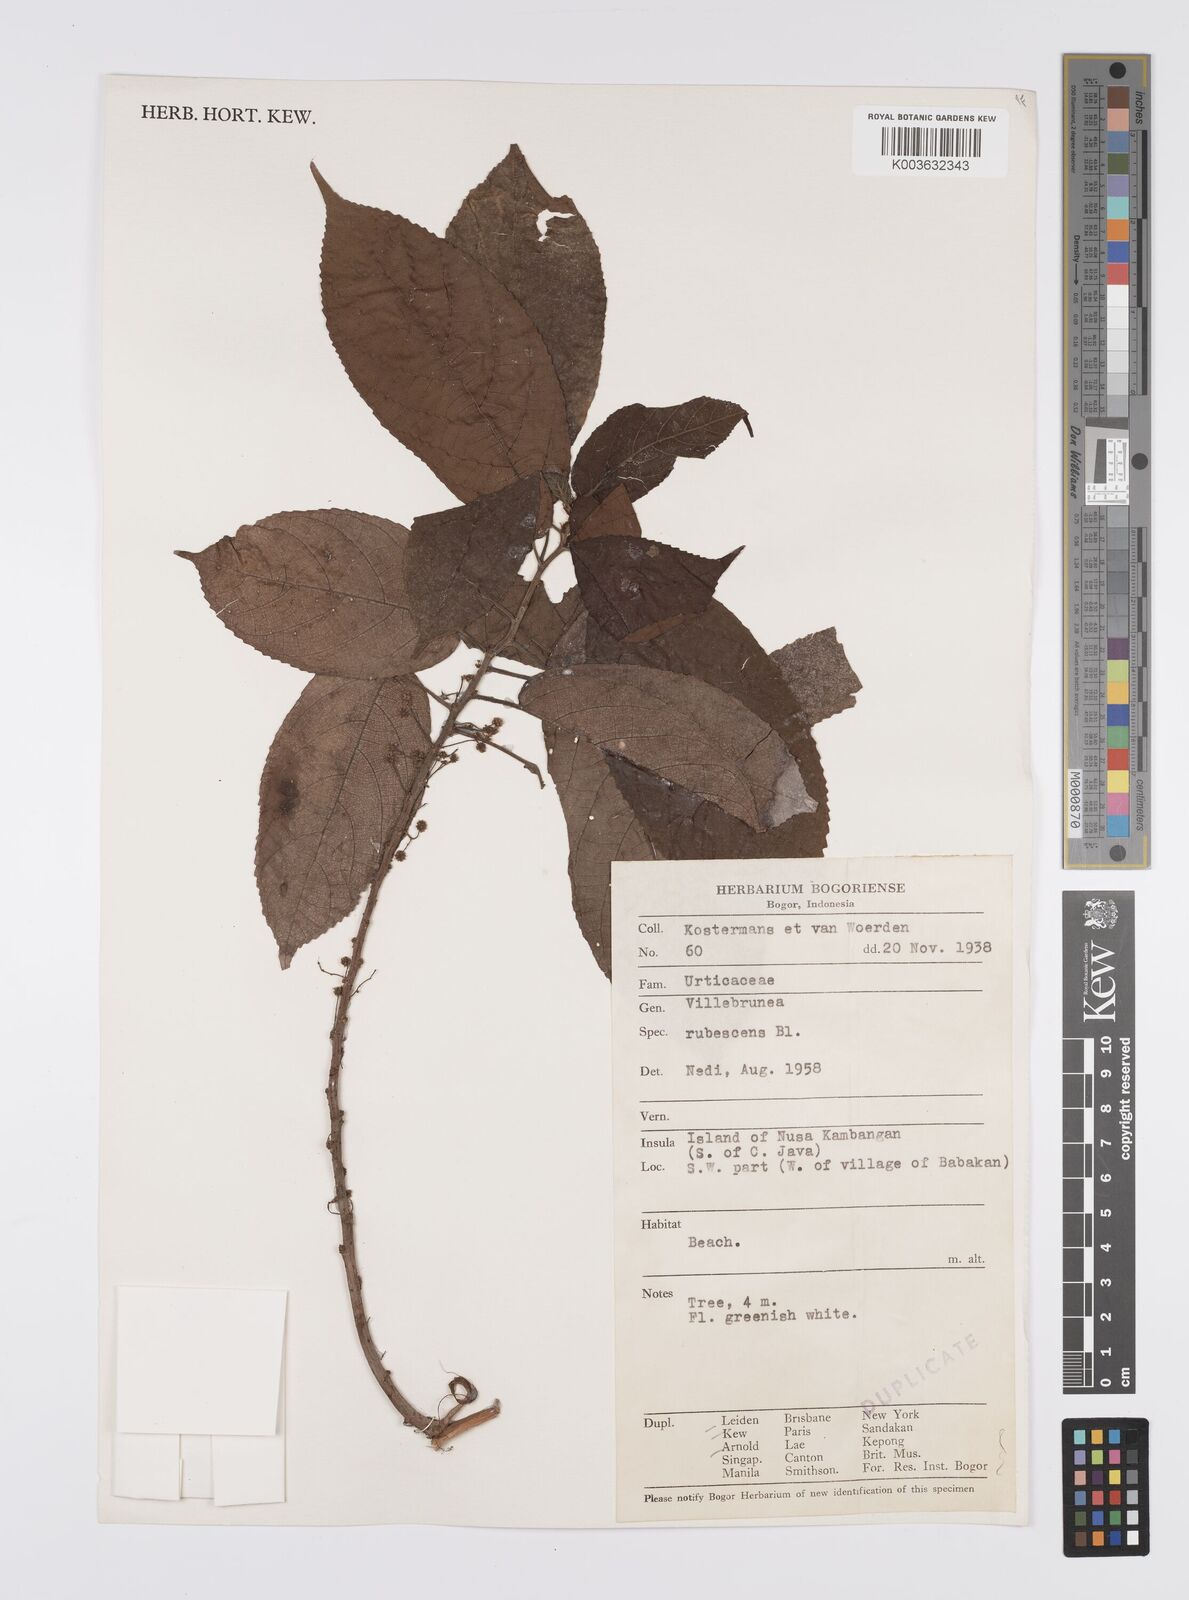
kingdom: Plantae
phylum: Tracheophyta
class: Magnoliopsida
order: Rosales
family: Urticaceae
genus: Oreocnide
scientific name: Oreocnide rubescens
